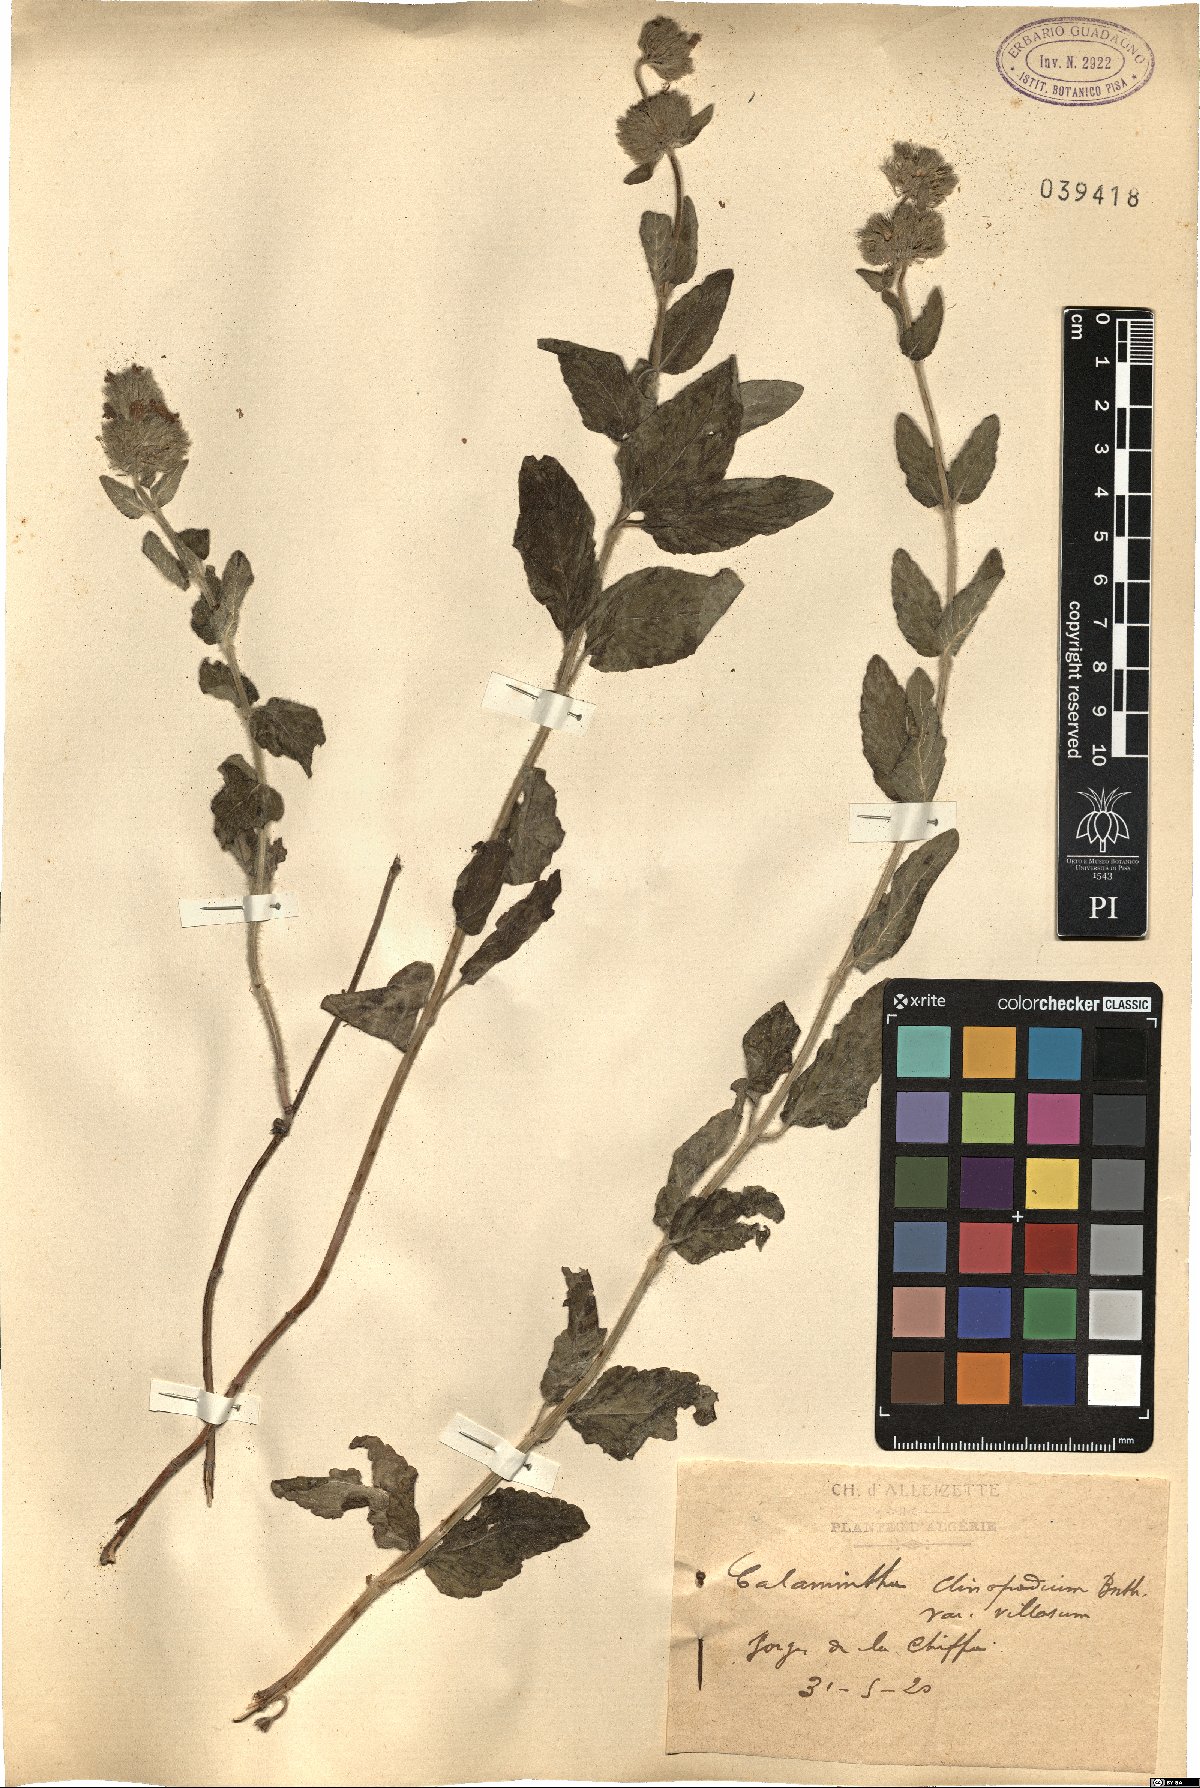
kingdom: Plantae
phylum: Tracheophyta
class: Magnoliopsida
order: Lamiales
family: Lamiaceae
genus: Clinopodium
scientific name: Clinopodium vulgare
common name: Wild basil
